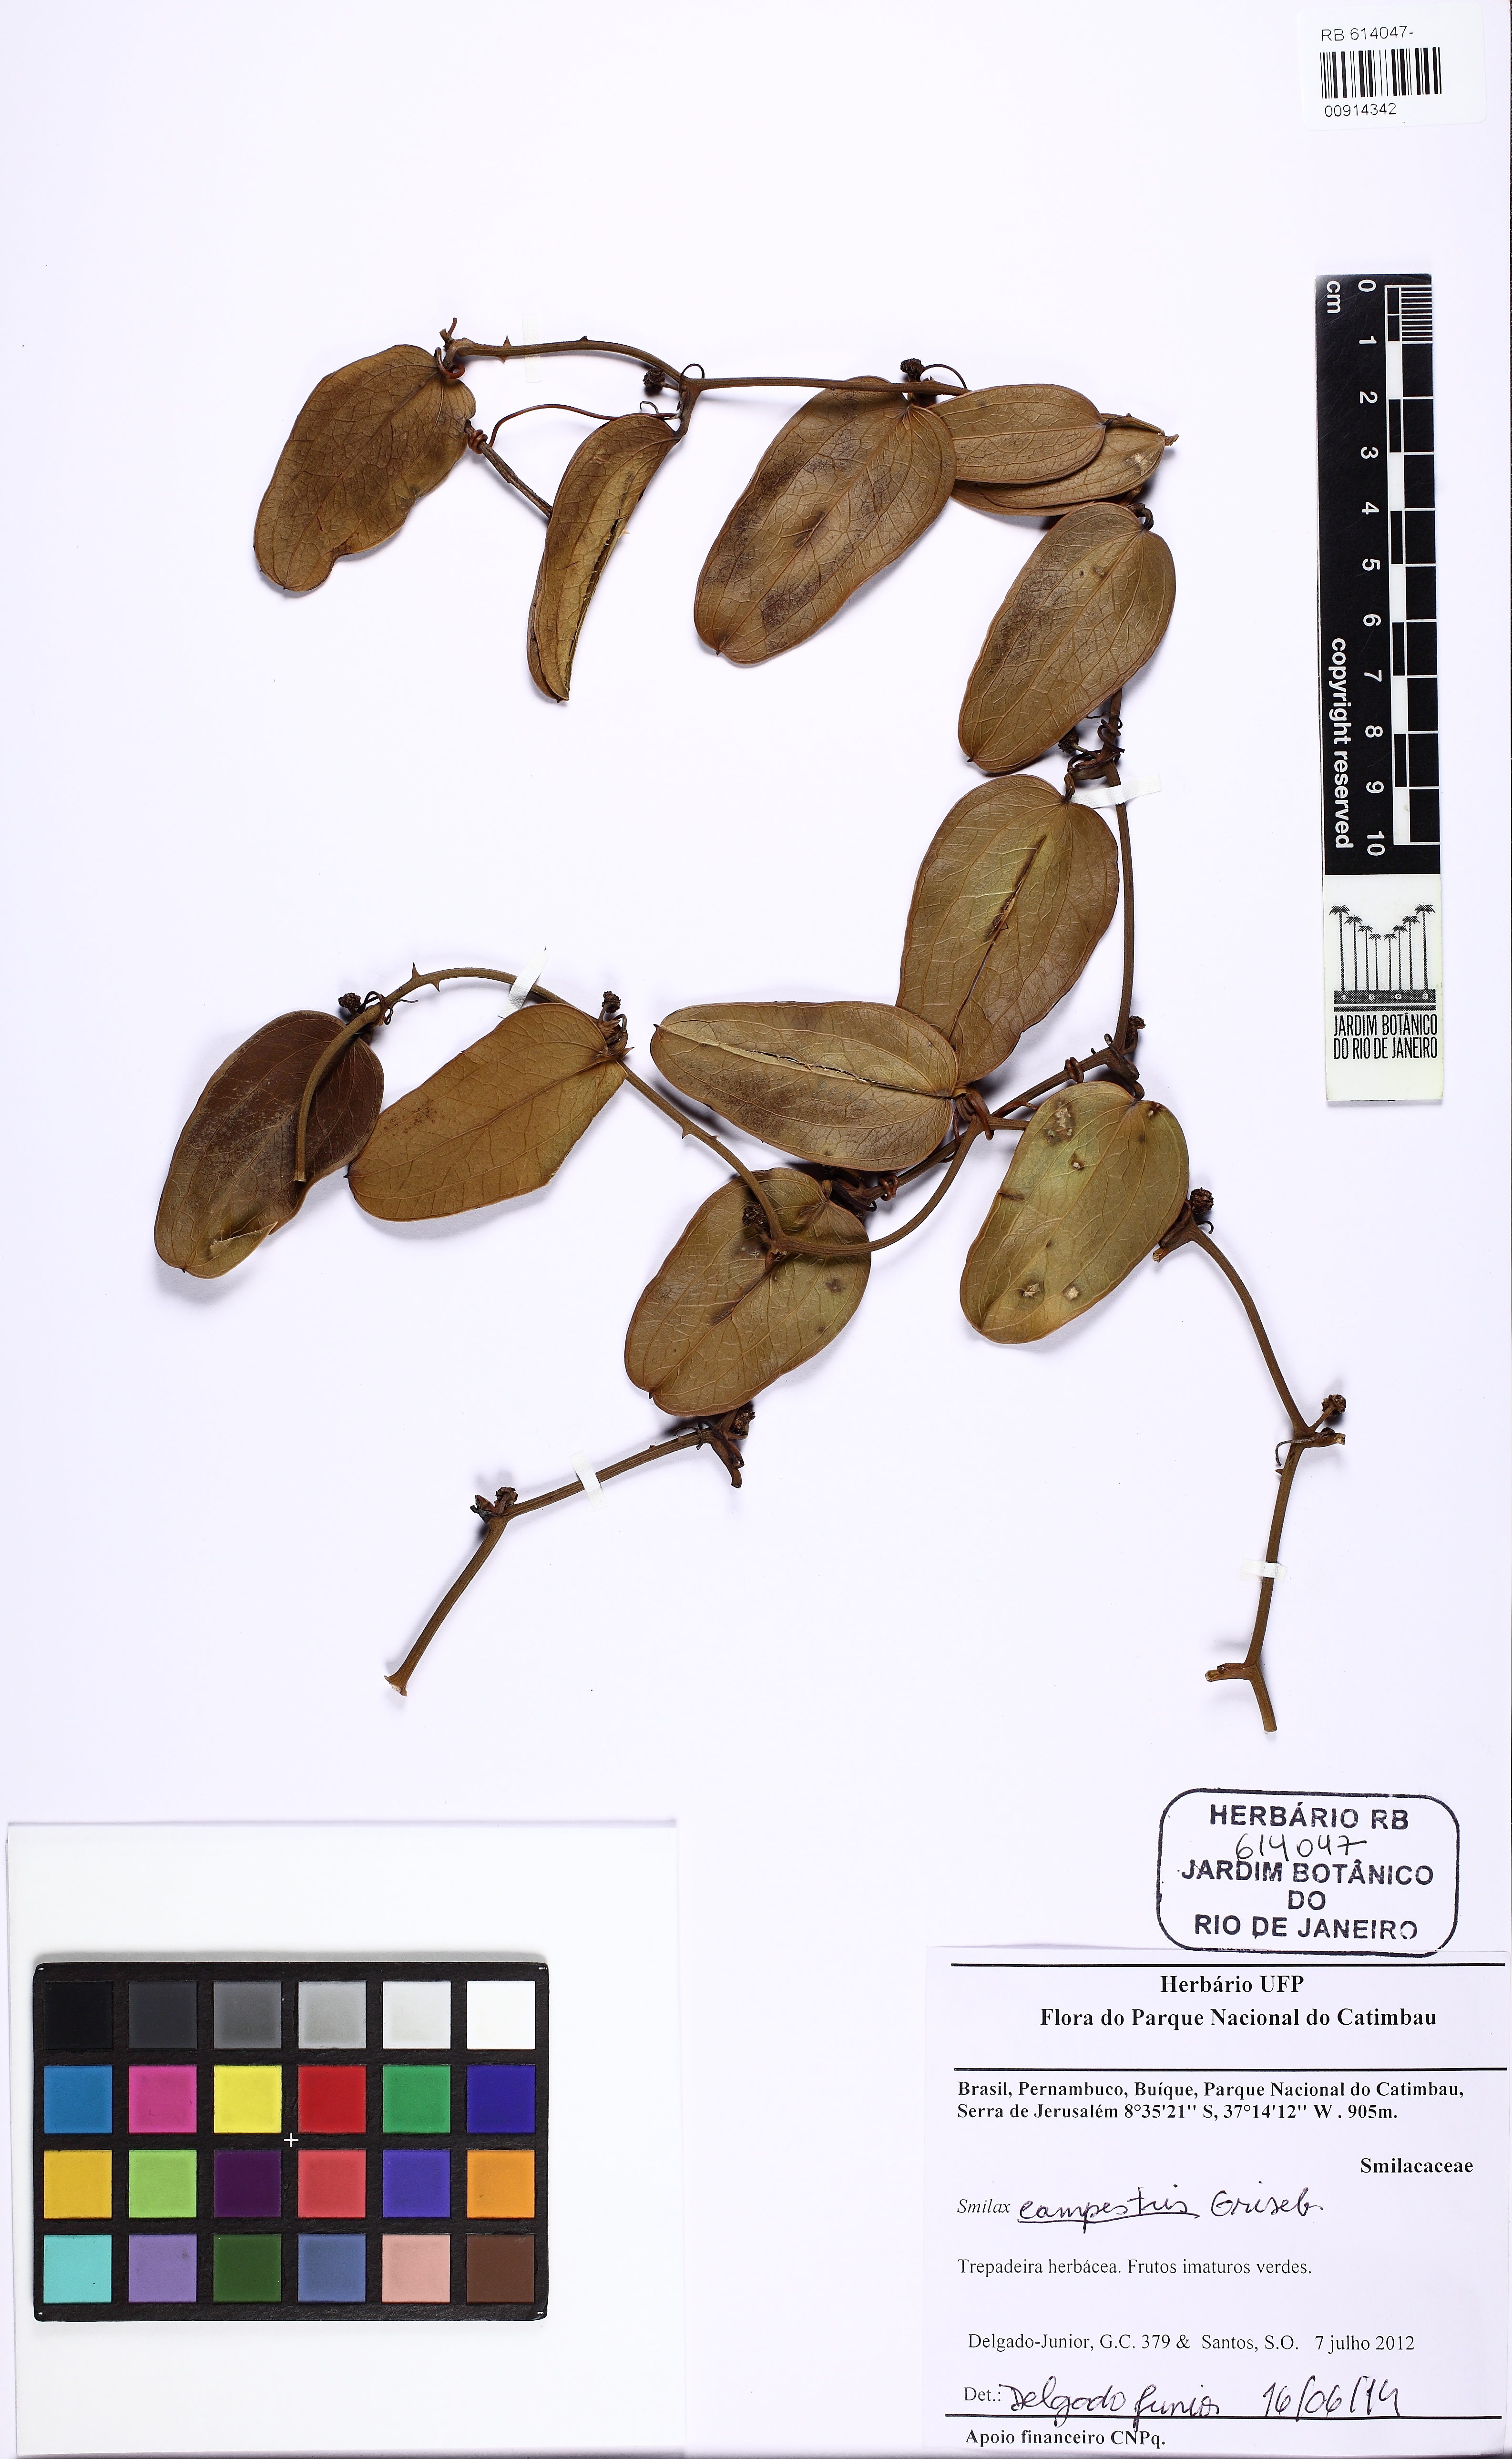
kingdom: Plantae
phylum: Tracheophyta
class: Liliopsida
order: Liliales
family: Smilacaceae
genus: Smilax
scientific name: Smilax campestris
